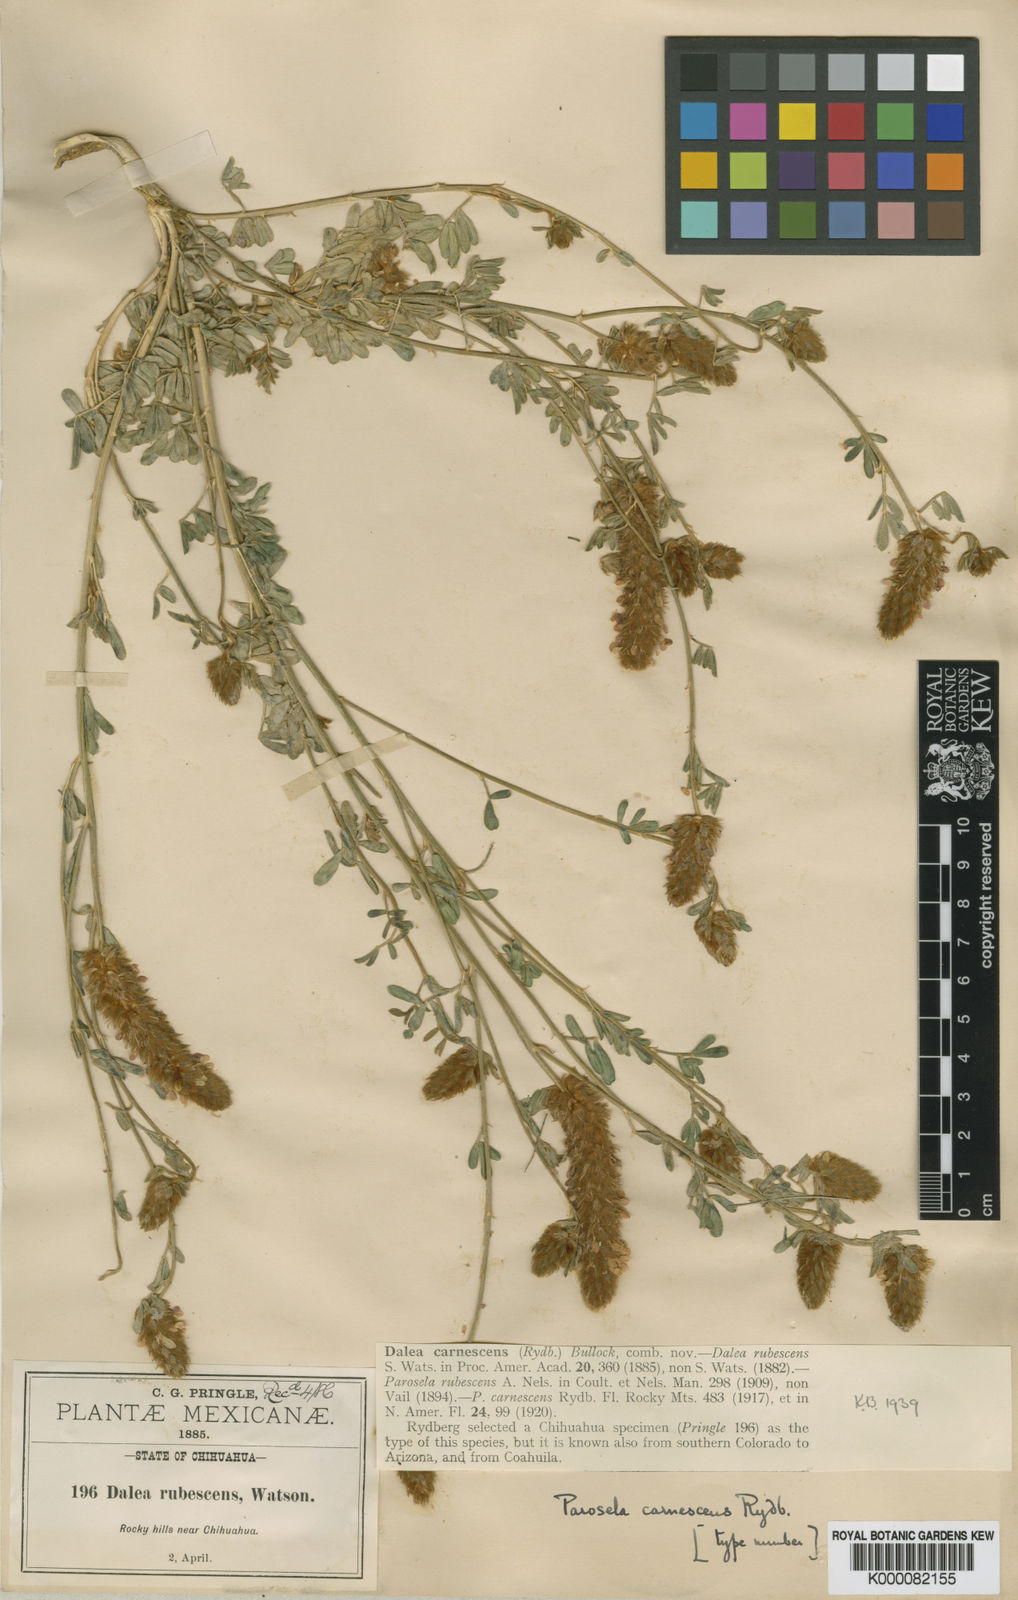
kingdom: Plantae
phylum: Tracheophyta
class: Magnoliopsida
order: Fabales
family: Fabaceae
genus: Dalea
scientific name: Dalea
